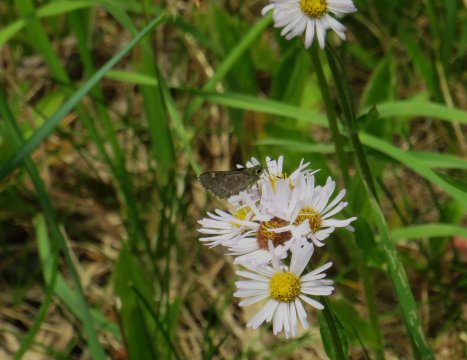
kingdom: Animalia
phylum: Arthropoda
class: Insecta
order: Lepidoptera
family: Hesperiidae
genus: Mastor
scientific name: Mastor hegon
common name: Pepper and Salt Skipper
